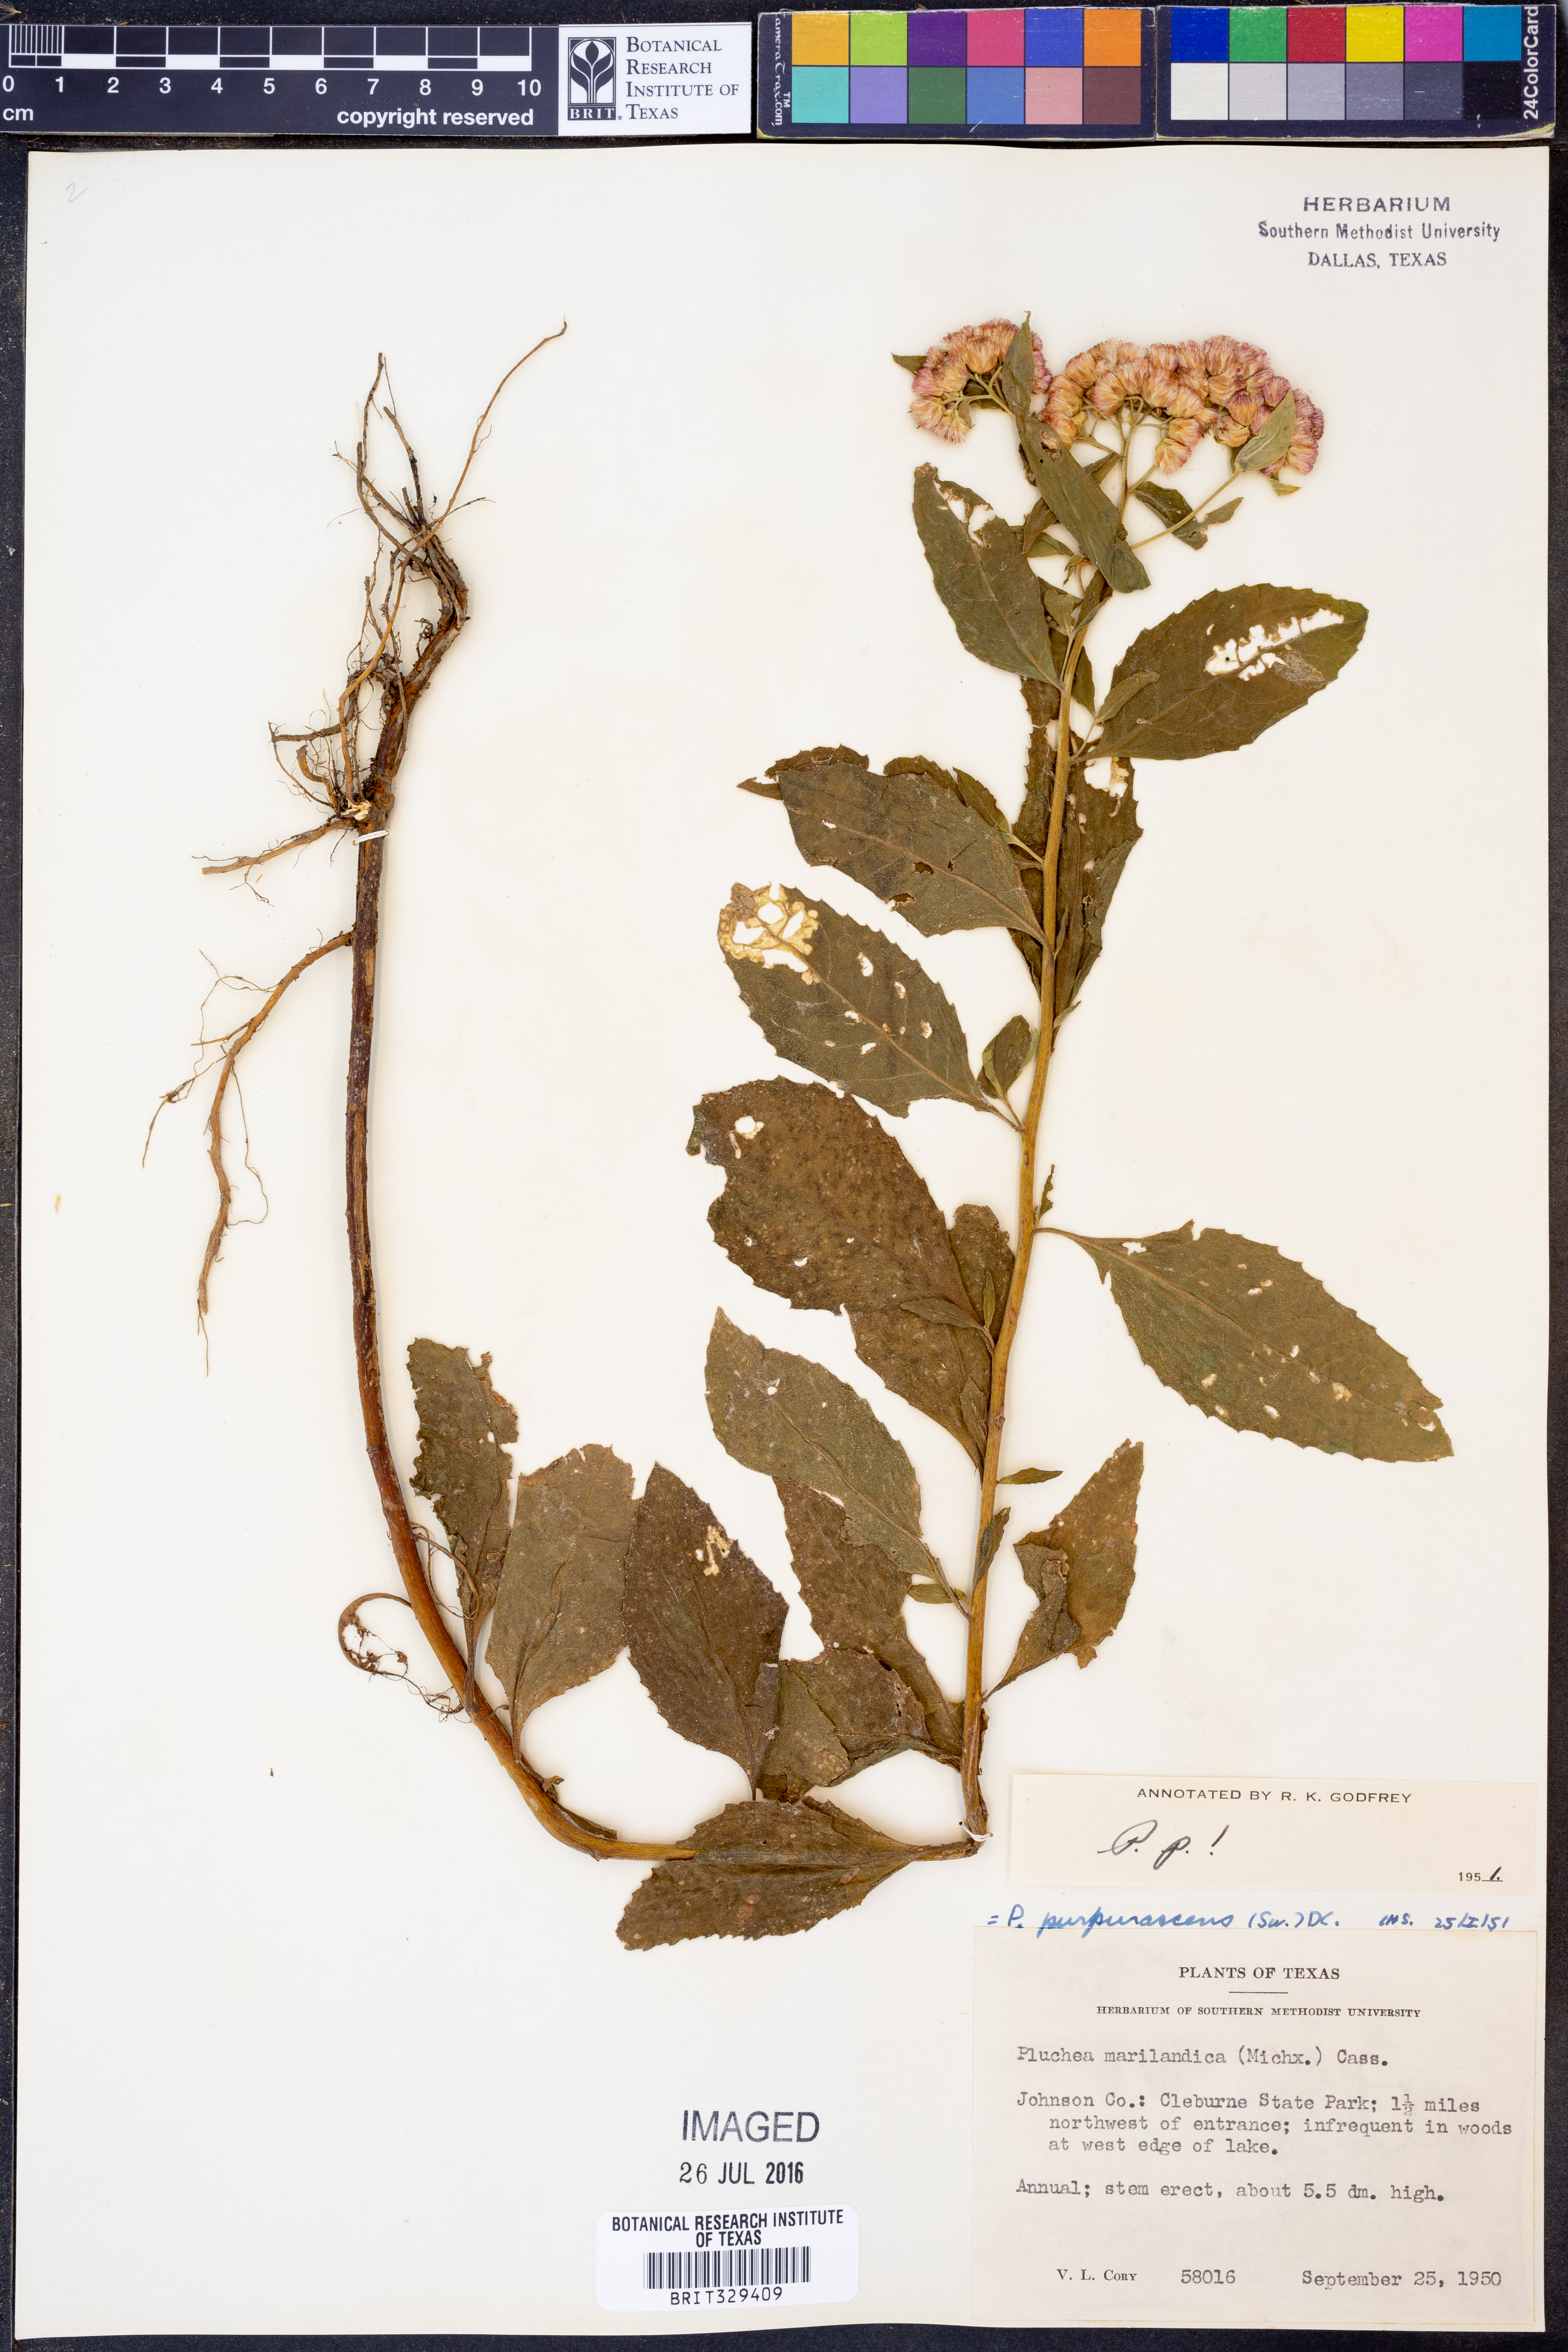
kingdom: Plantae
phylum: Tracheophyta
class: Magnoliopsida
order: Asterales
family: Asteraceae
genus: Pluchea
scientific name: Pluchea odorata
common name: Saltmarsh fleabane
